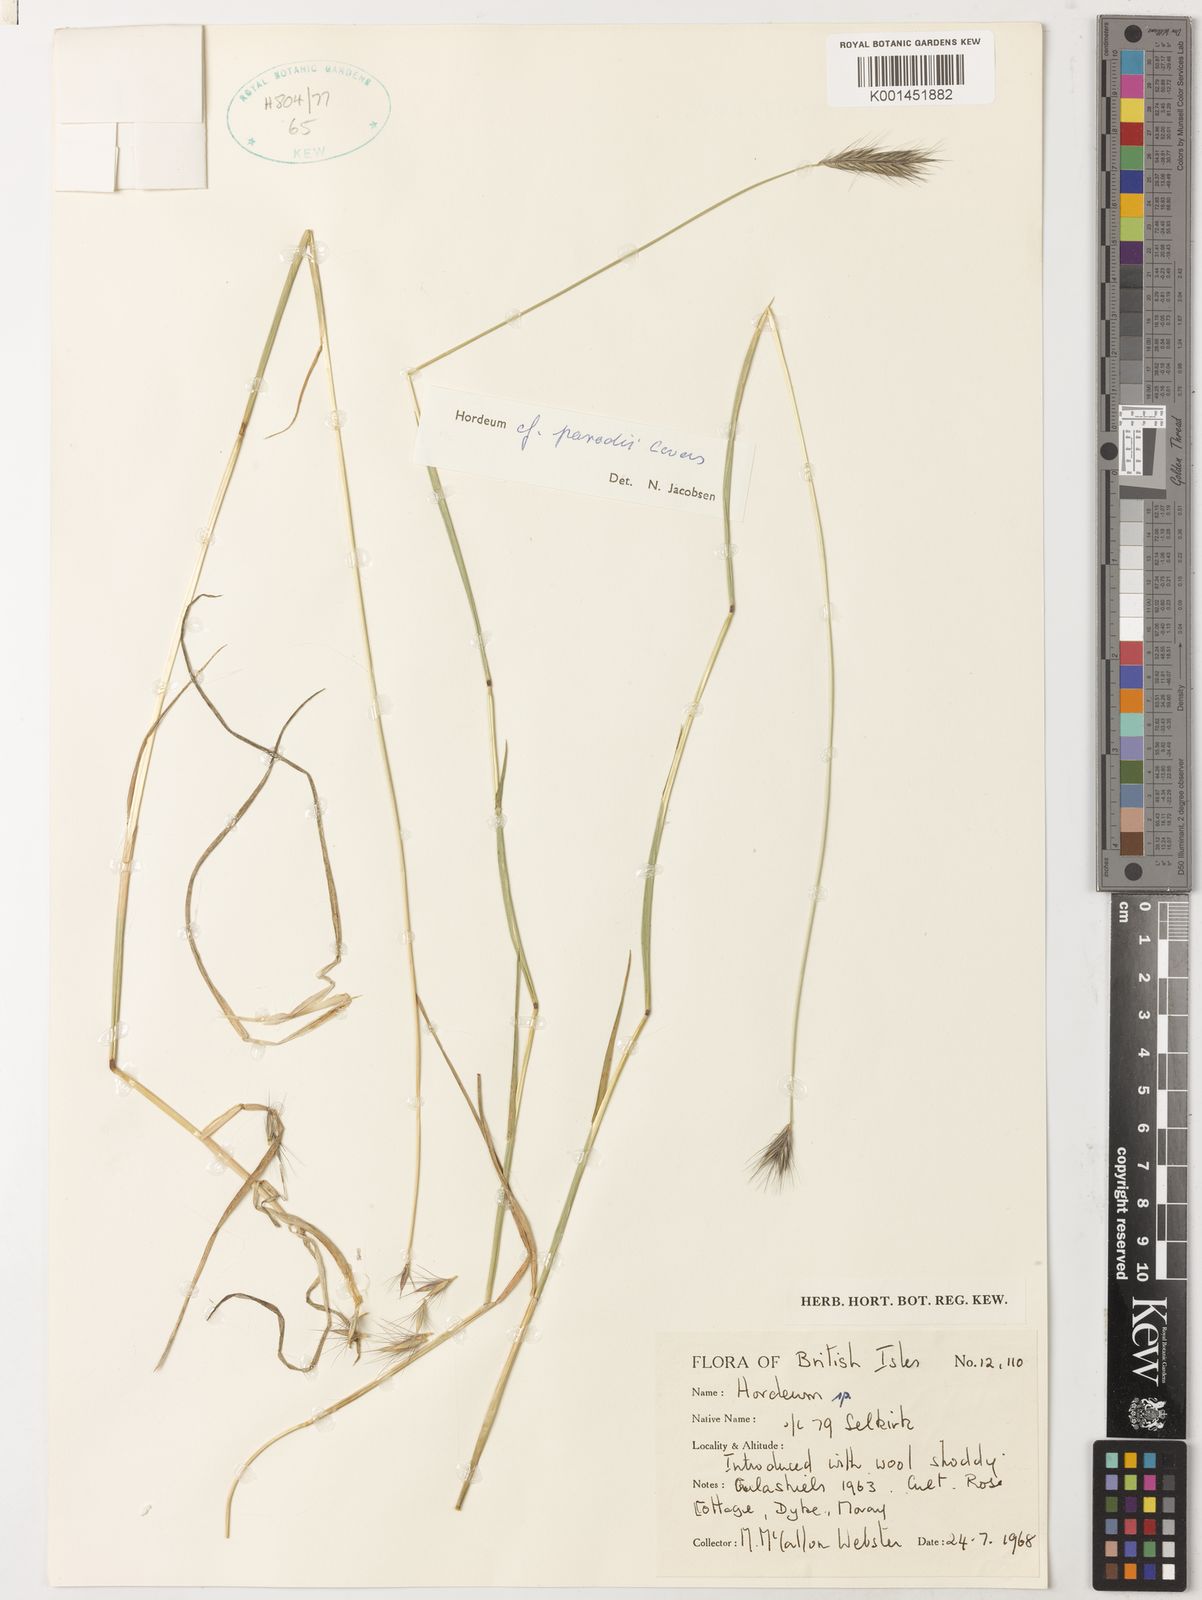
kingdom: Plantae
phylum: Tracheophyta
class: Liliopsida
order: Poales
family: Poaceae
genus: Hordeum
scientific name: Hordeum parodii
